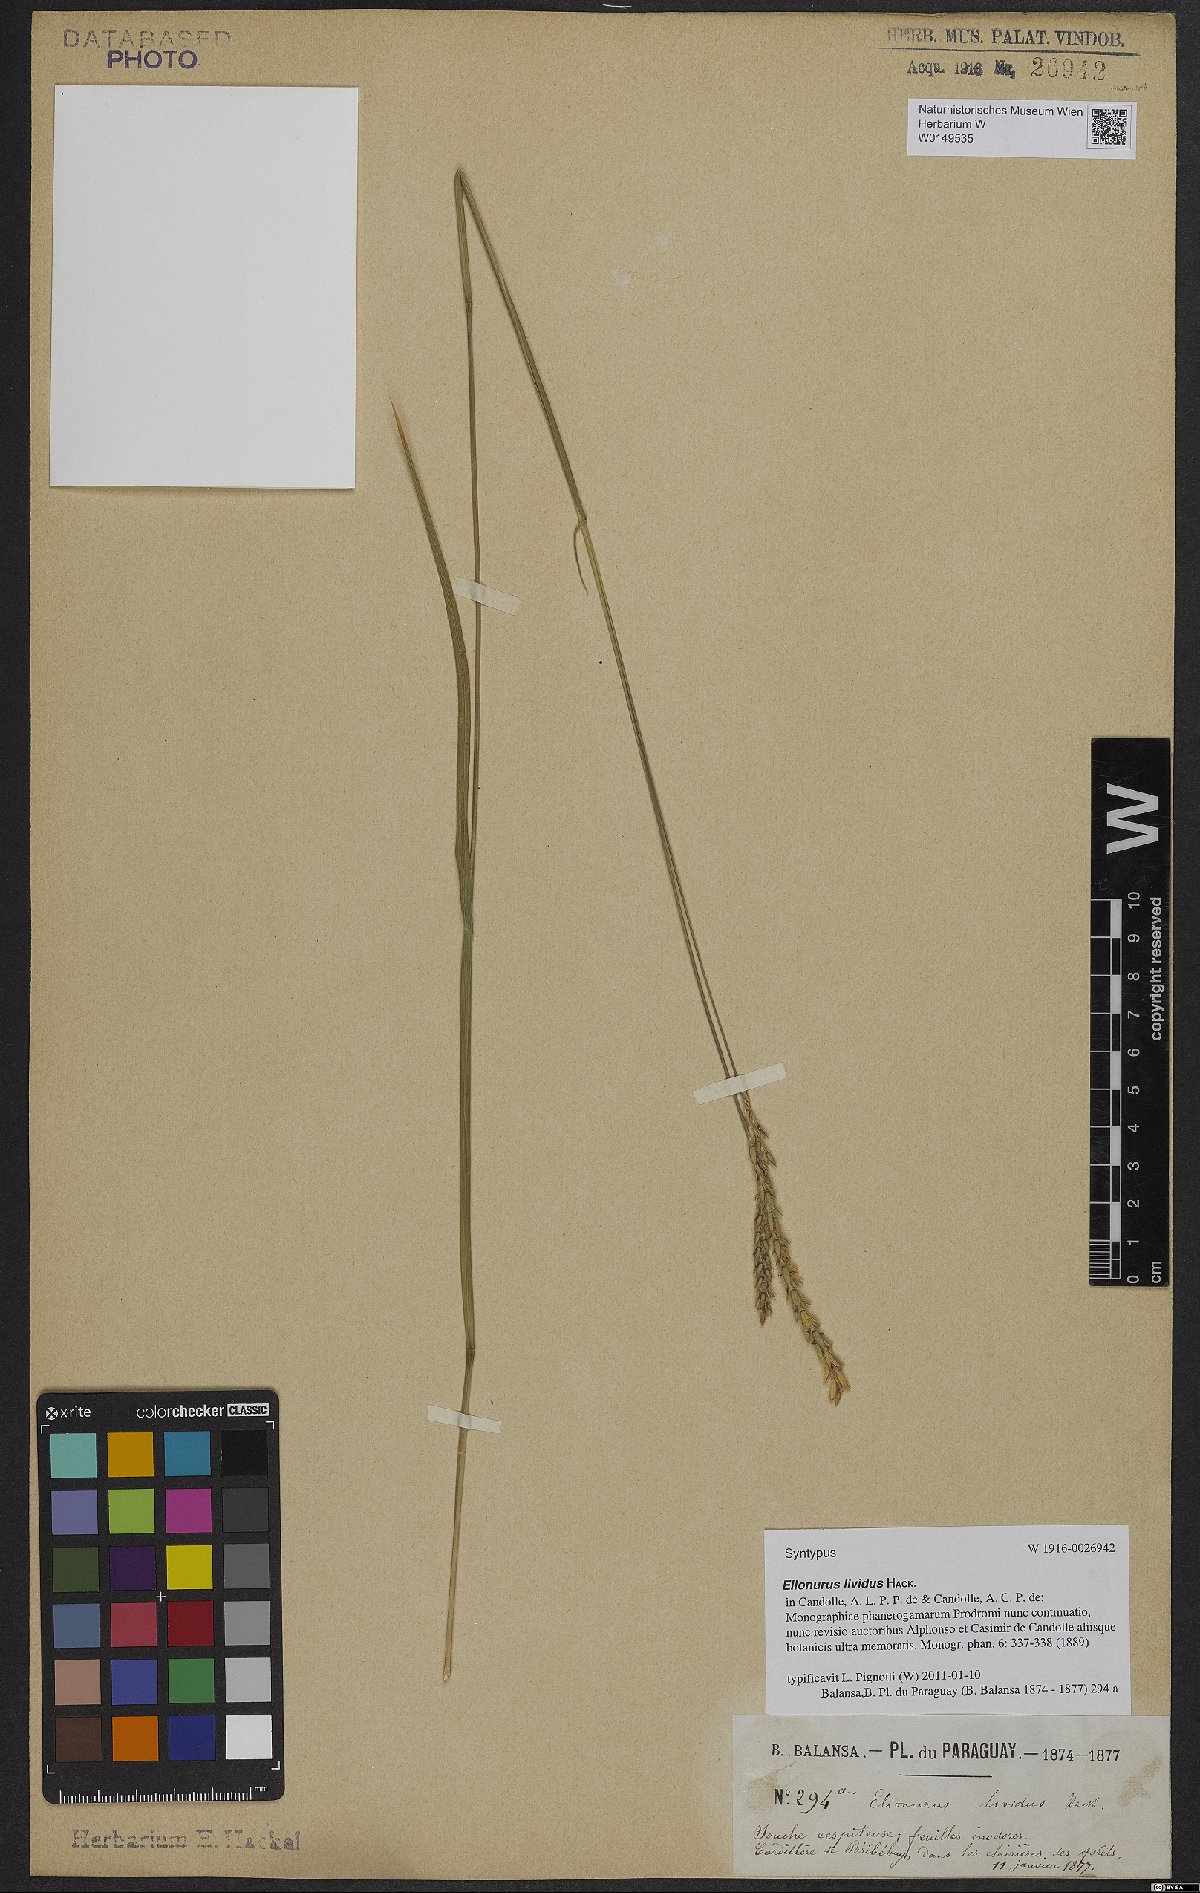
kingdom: Plantae
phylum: Tracheophyta
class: Liliopsida
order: Poales
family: Poaceae
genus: Elionurus
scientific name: Elionurus lividus
